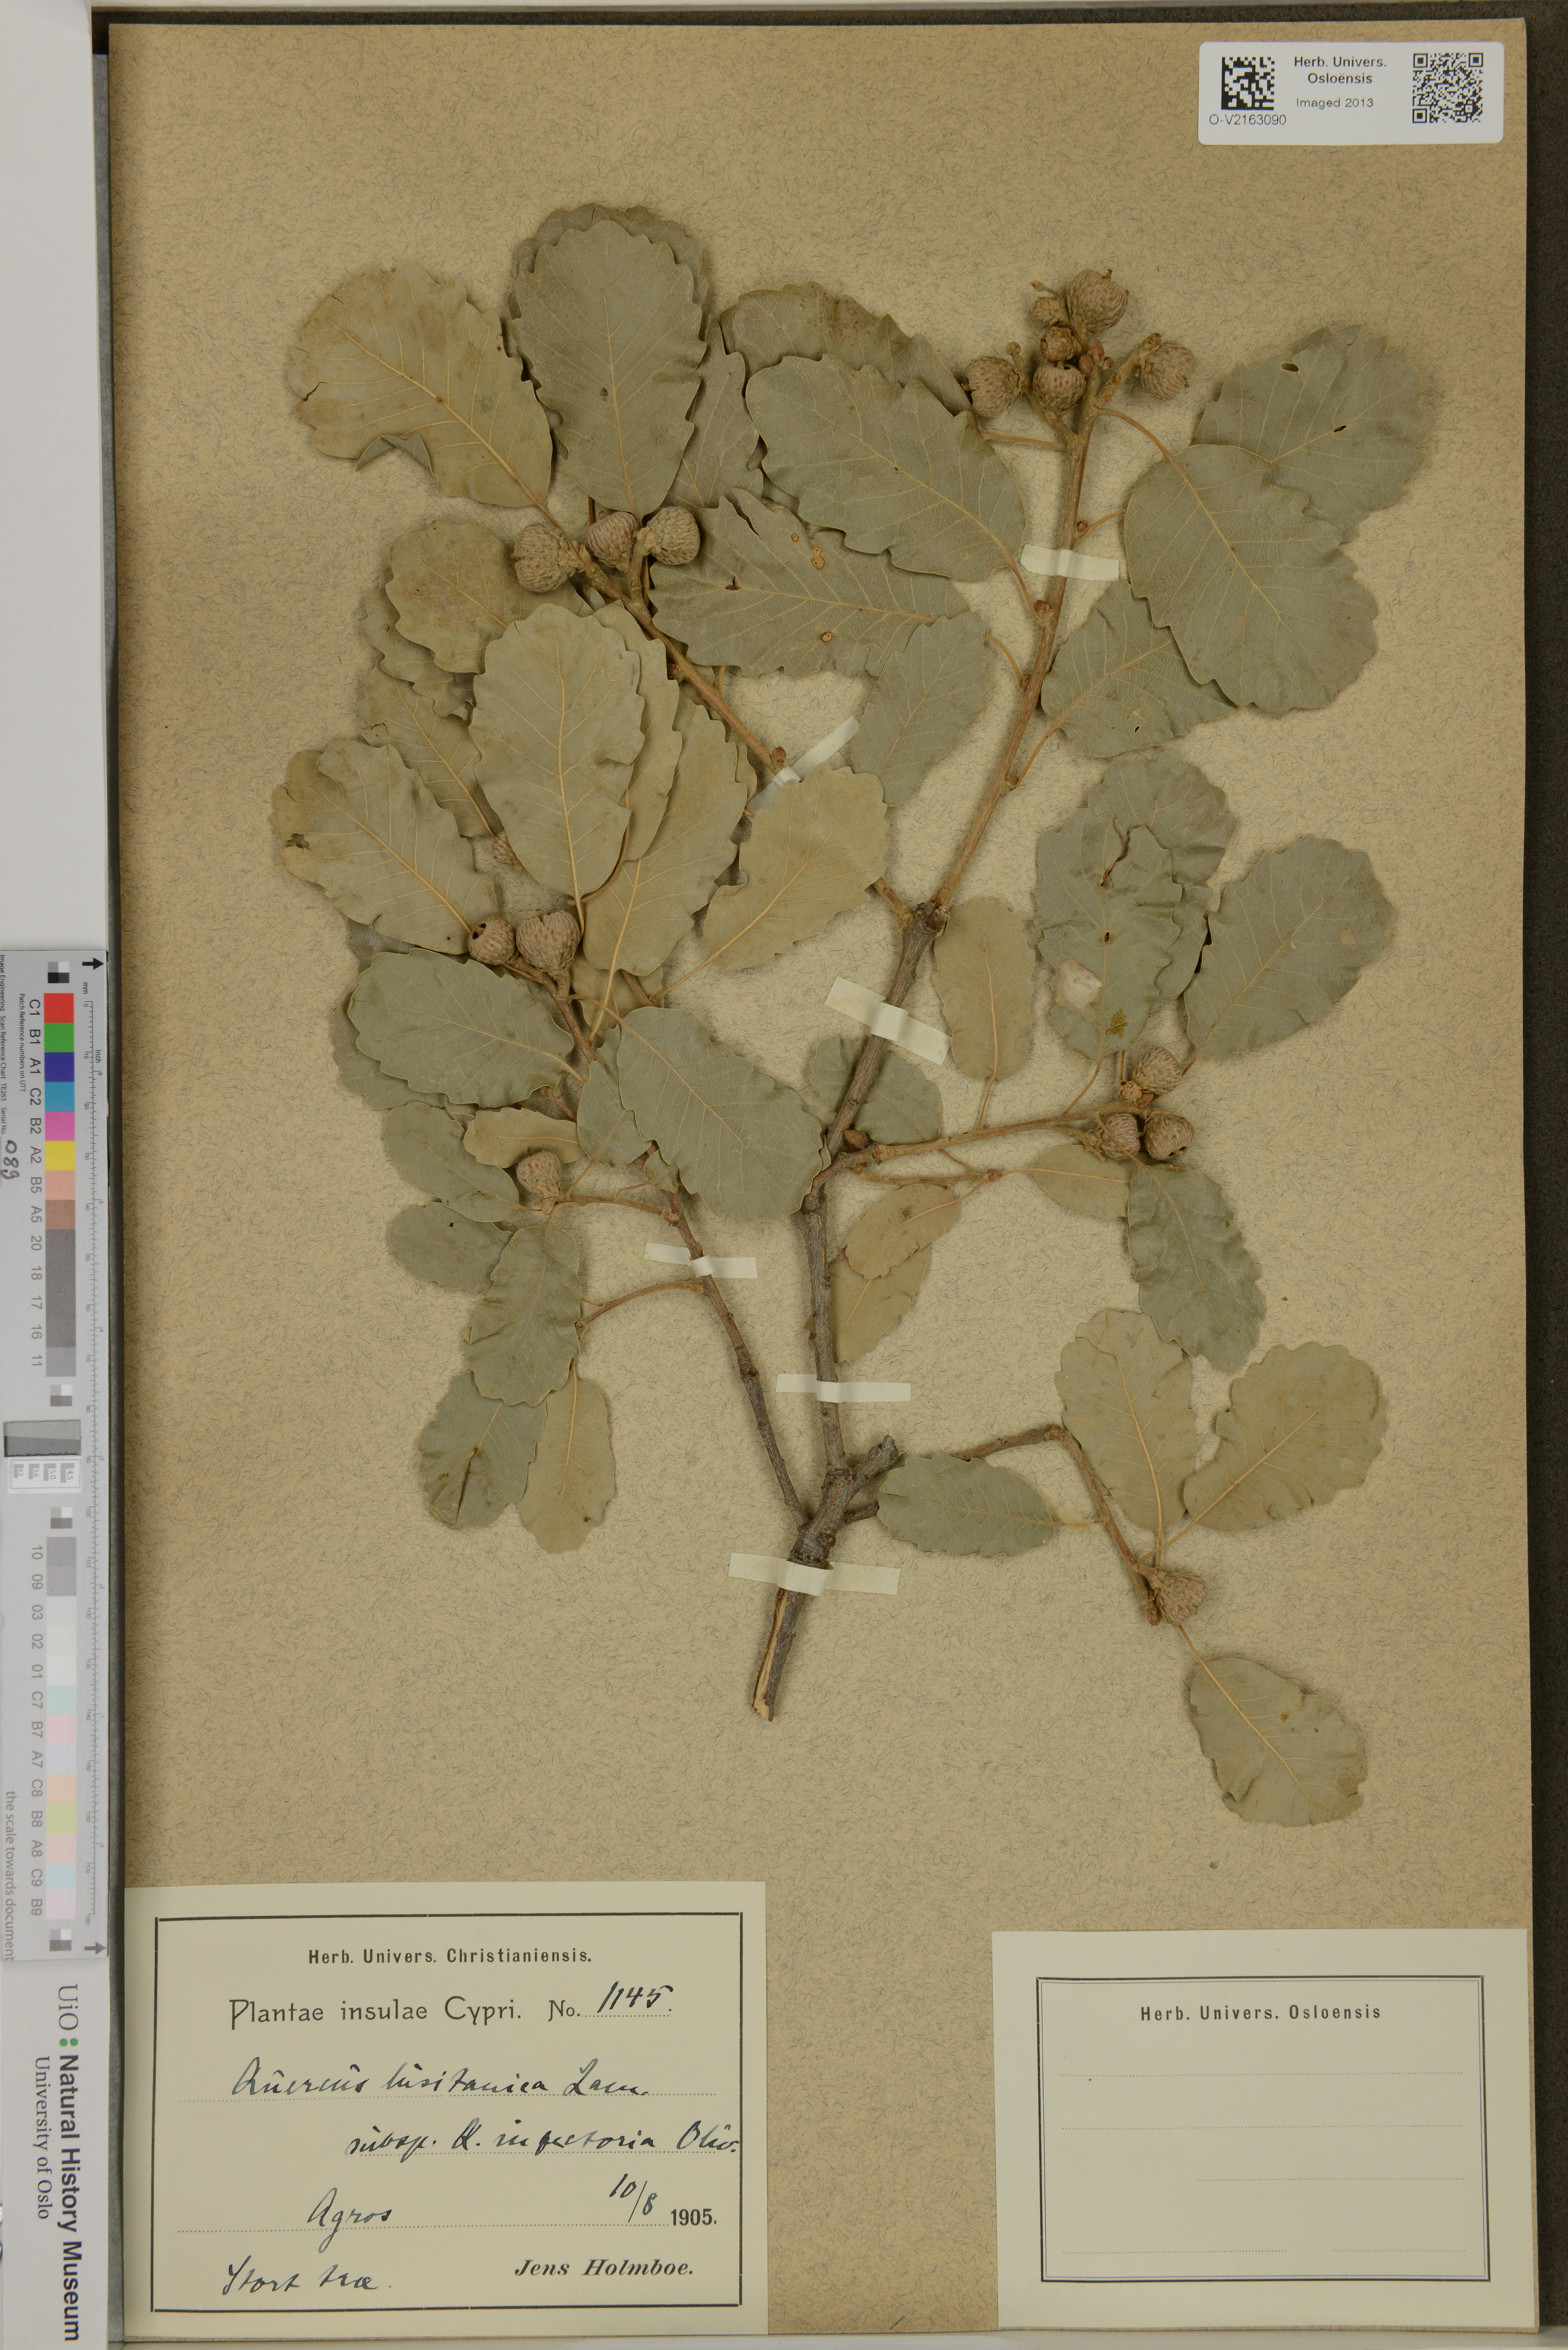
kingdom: Plantae
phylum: Tracheophyta
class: Magnoliopsida
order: Fagales
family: Fagaceae
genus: Quercus
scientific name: Quercus lusitanica
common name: Scrub gall oak
